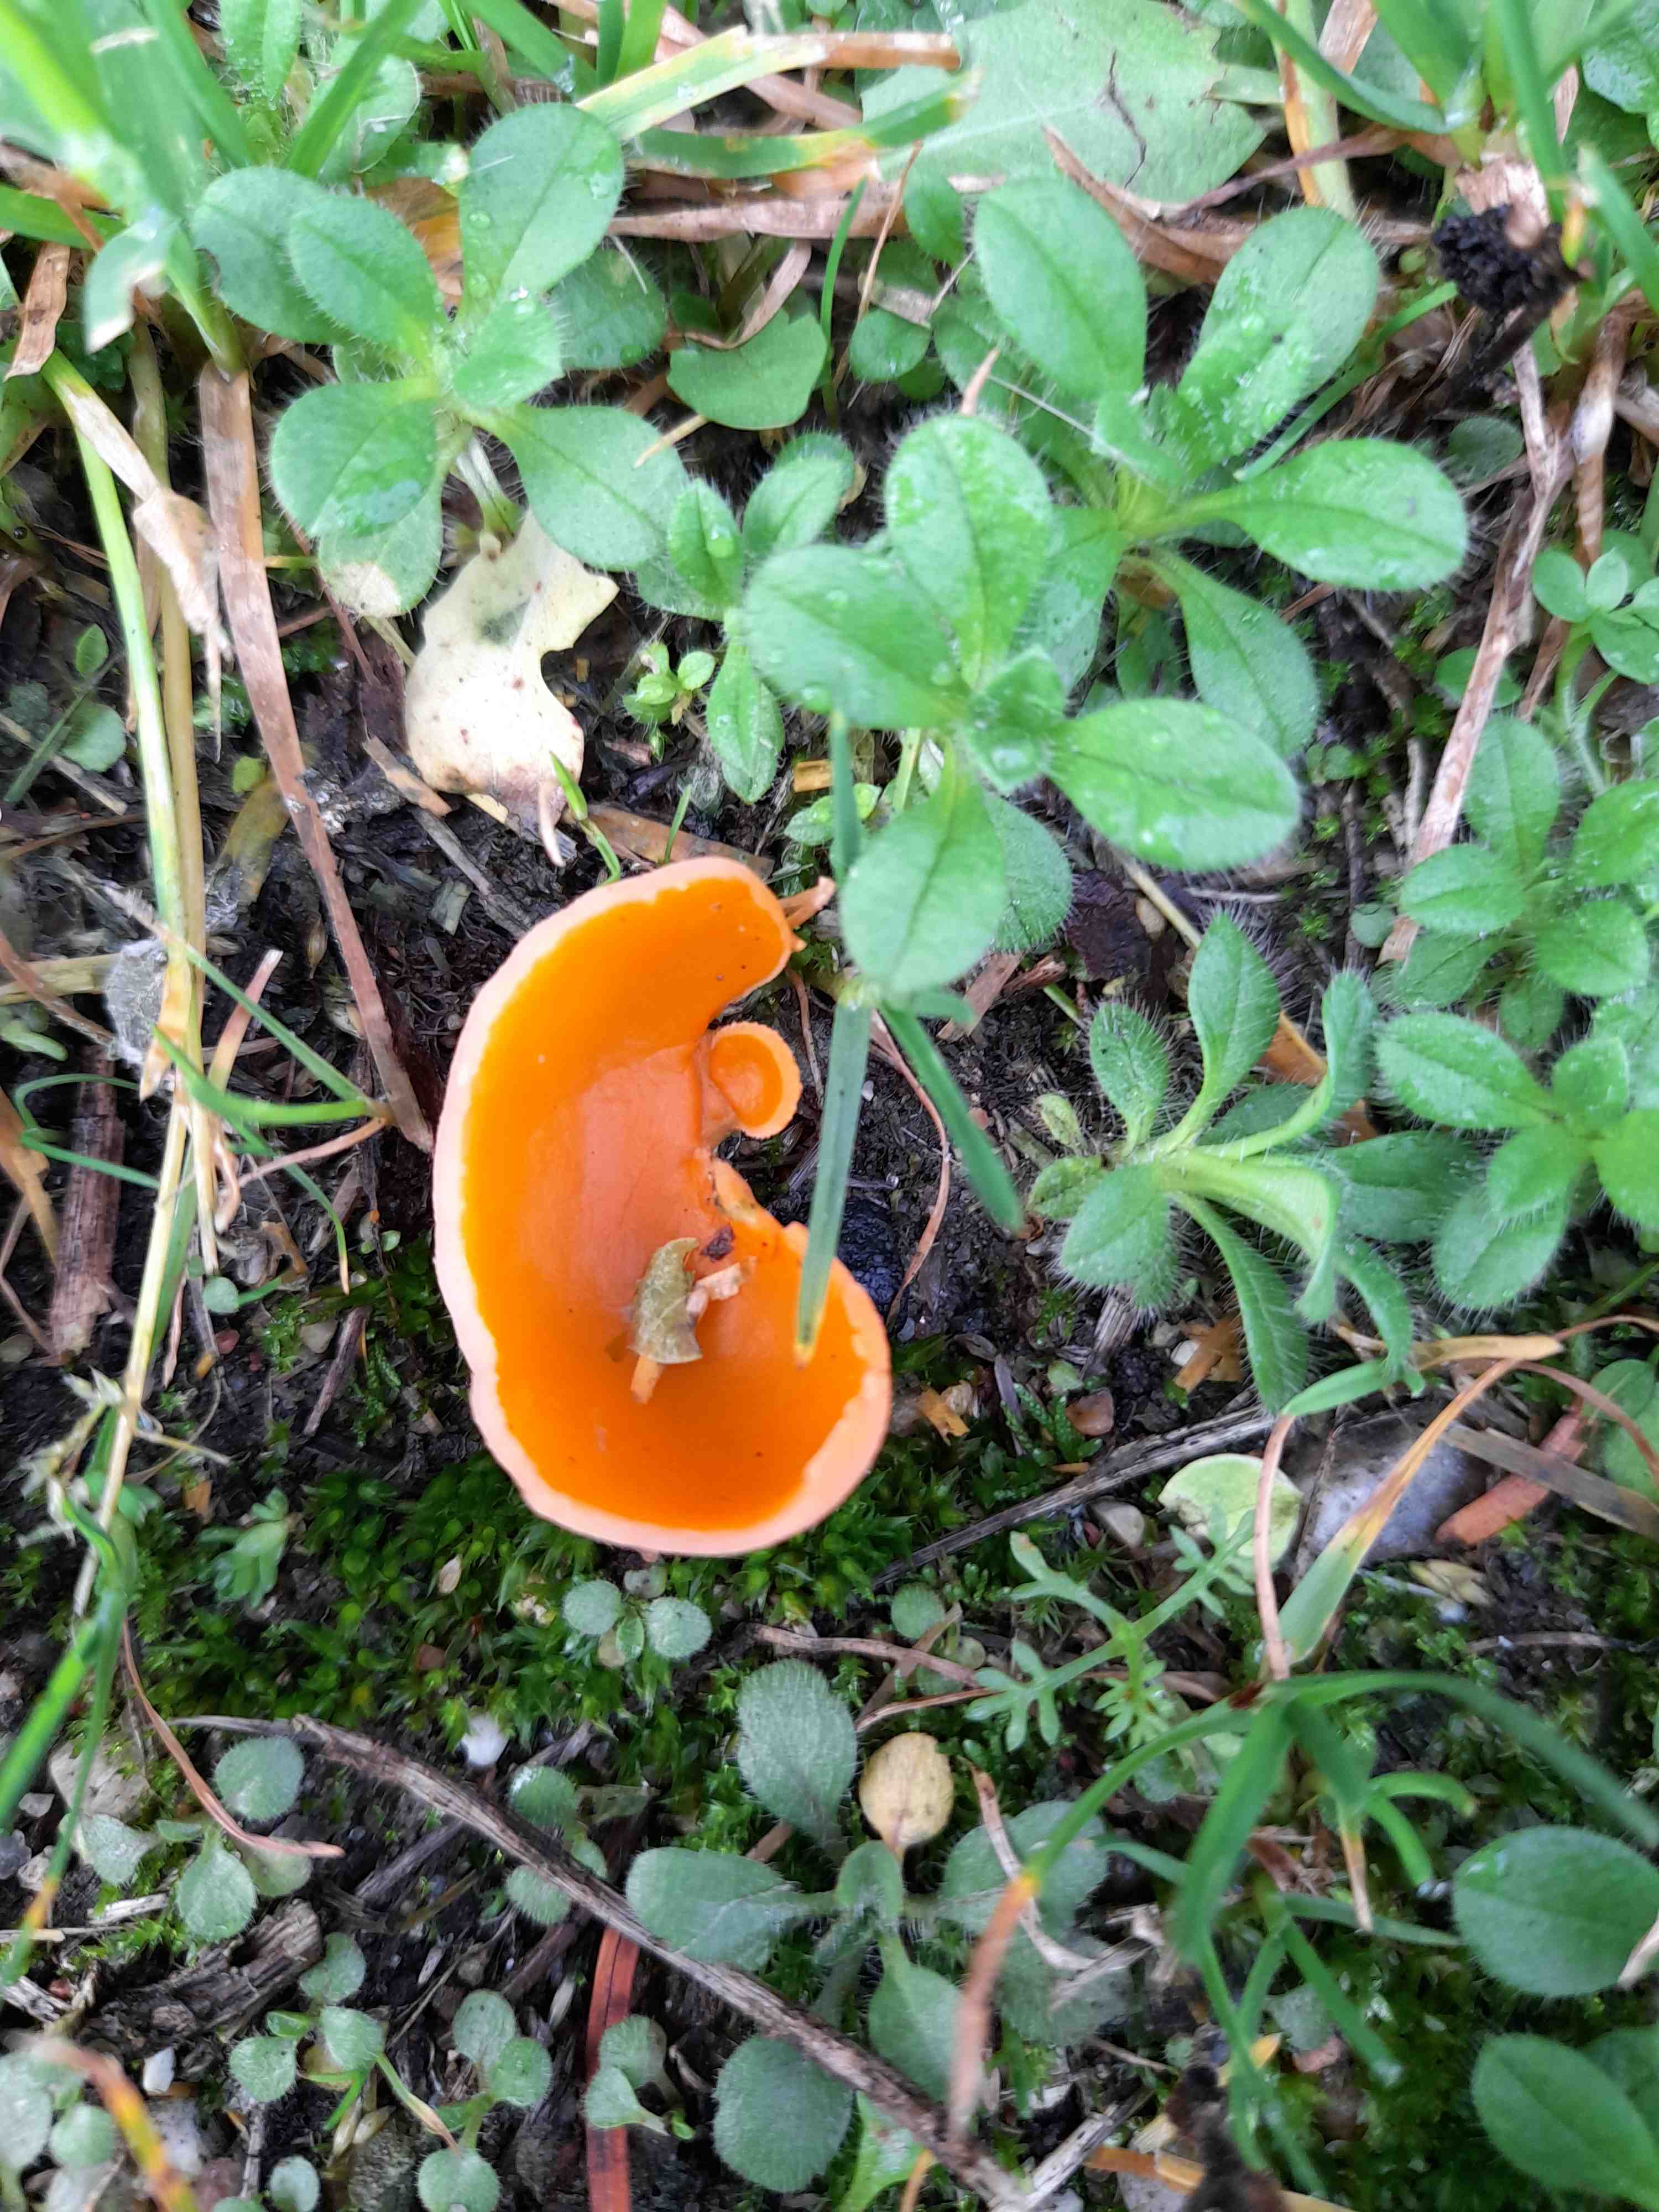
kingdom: Fungi
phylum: Ascomycota
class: Pezizomycetes
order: Pezizales
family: Pyronemataceae
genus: Aleuria
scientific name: Aleuria aurantia
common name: almindelig orangebæger
